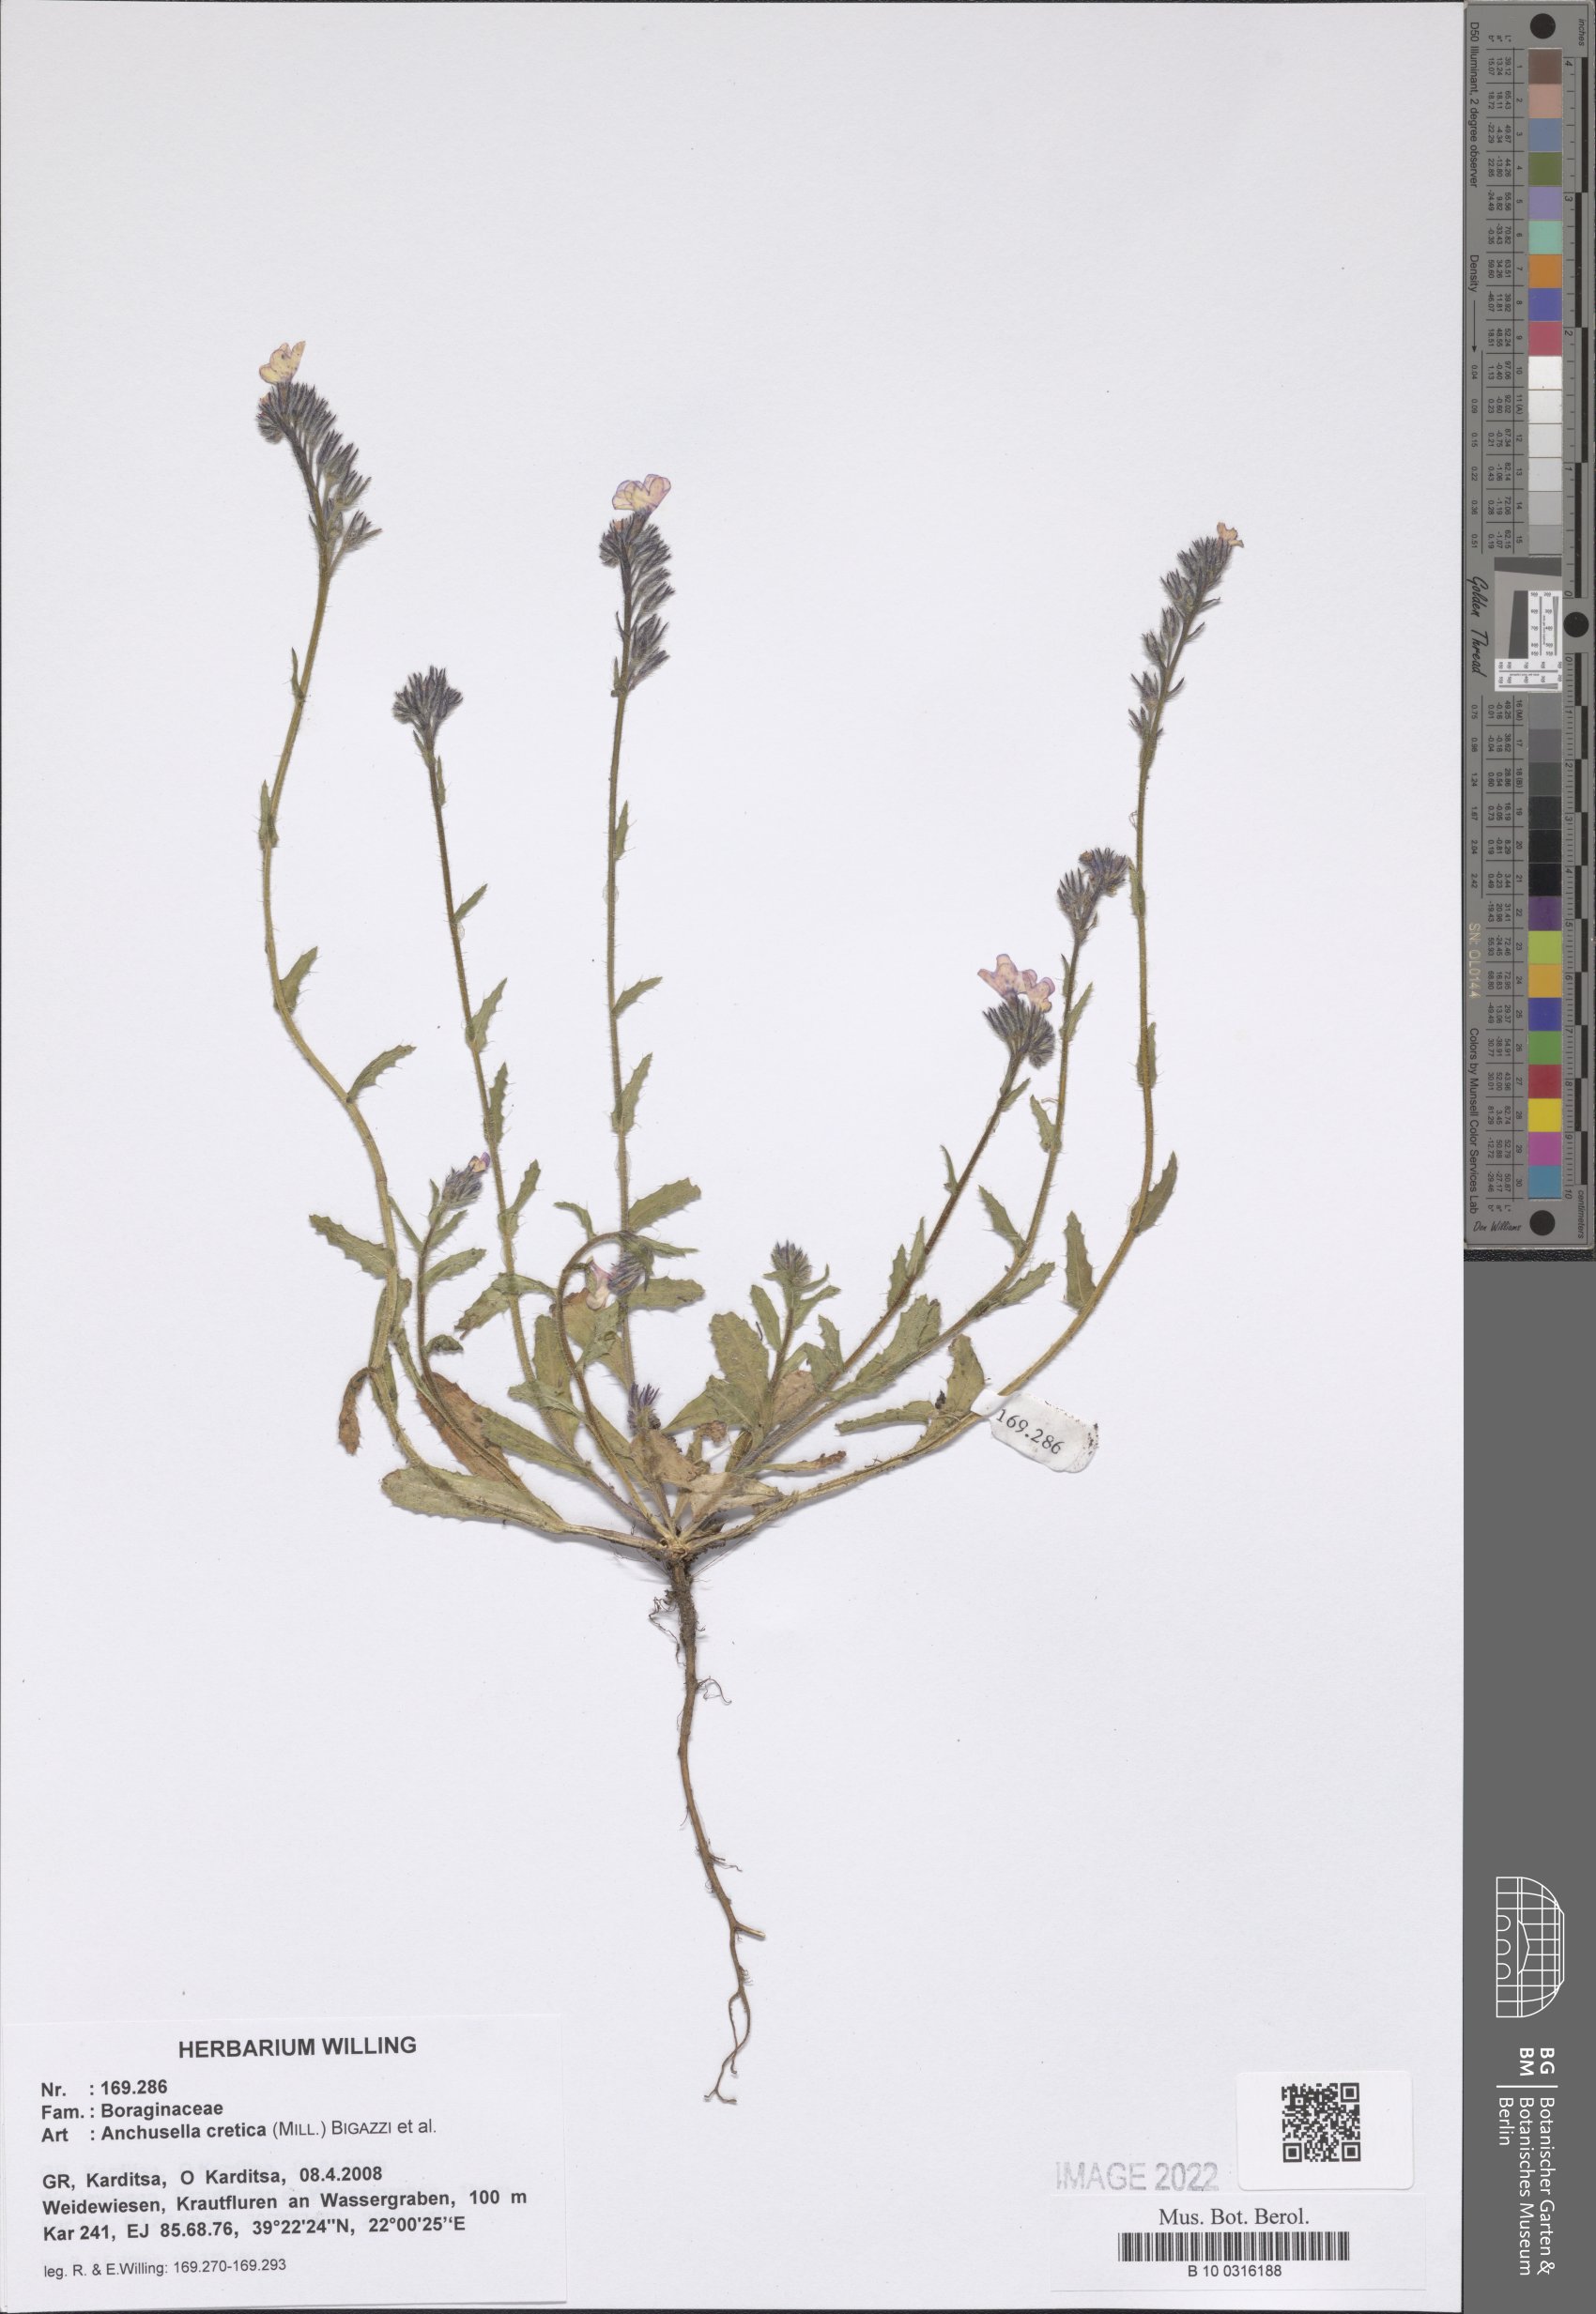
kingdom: Plantae
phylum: Tracheophyta
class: Magnoliopsida
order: Boraginales
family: Boraginaceae
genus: Anchusella
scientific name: Anchusella cretica
